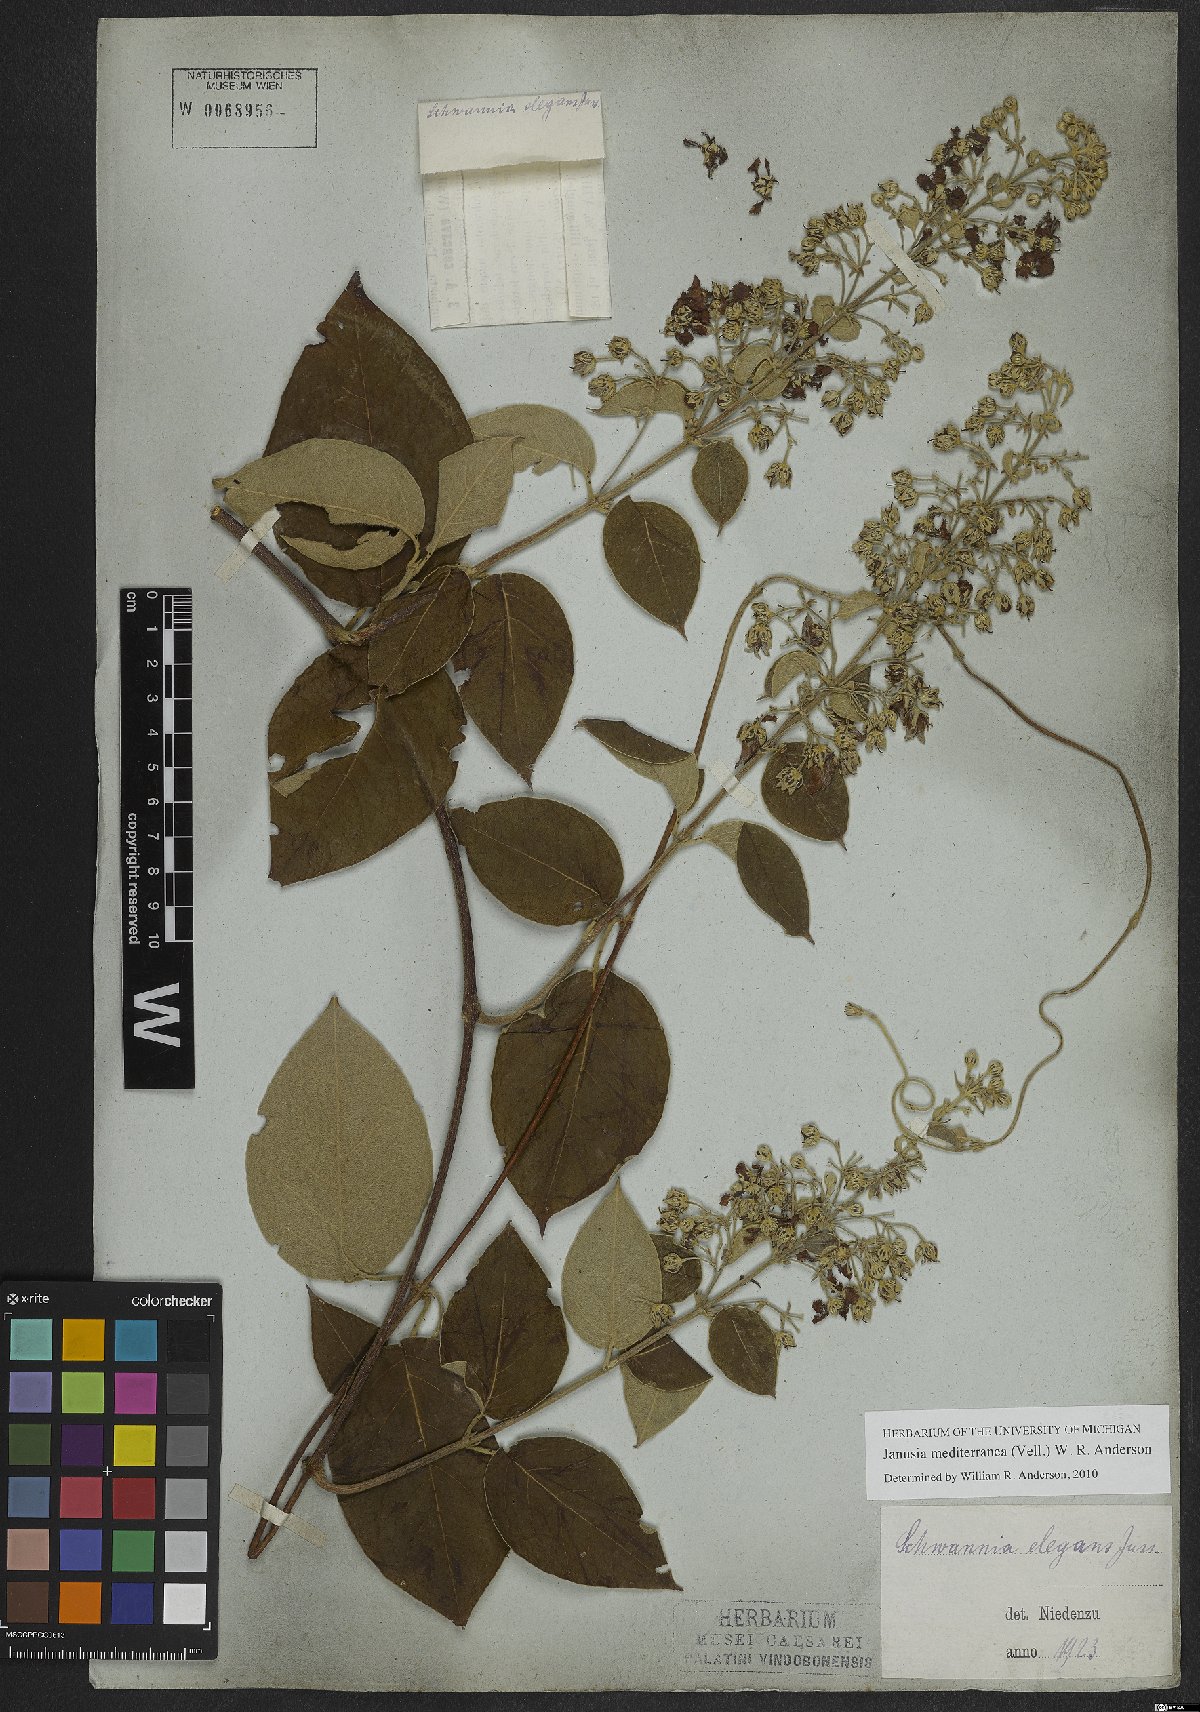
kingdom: Plantae
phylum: Tracheophyta
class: Magnoliopsida
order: Malpighiales
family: Malpighiaceae
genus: Janusia
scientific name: Janusia mediterranea
